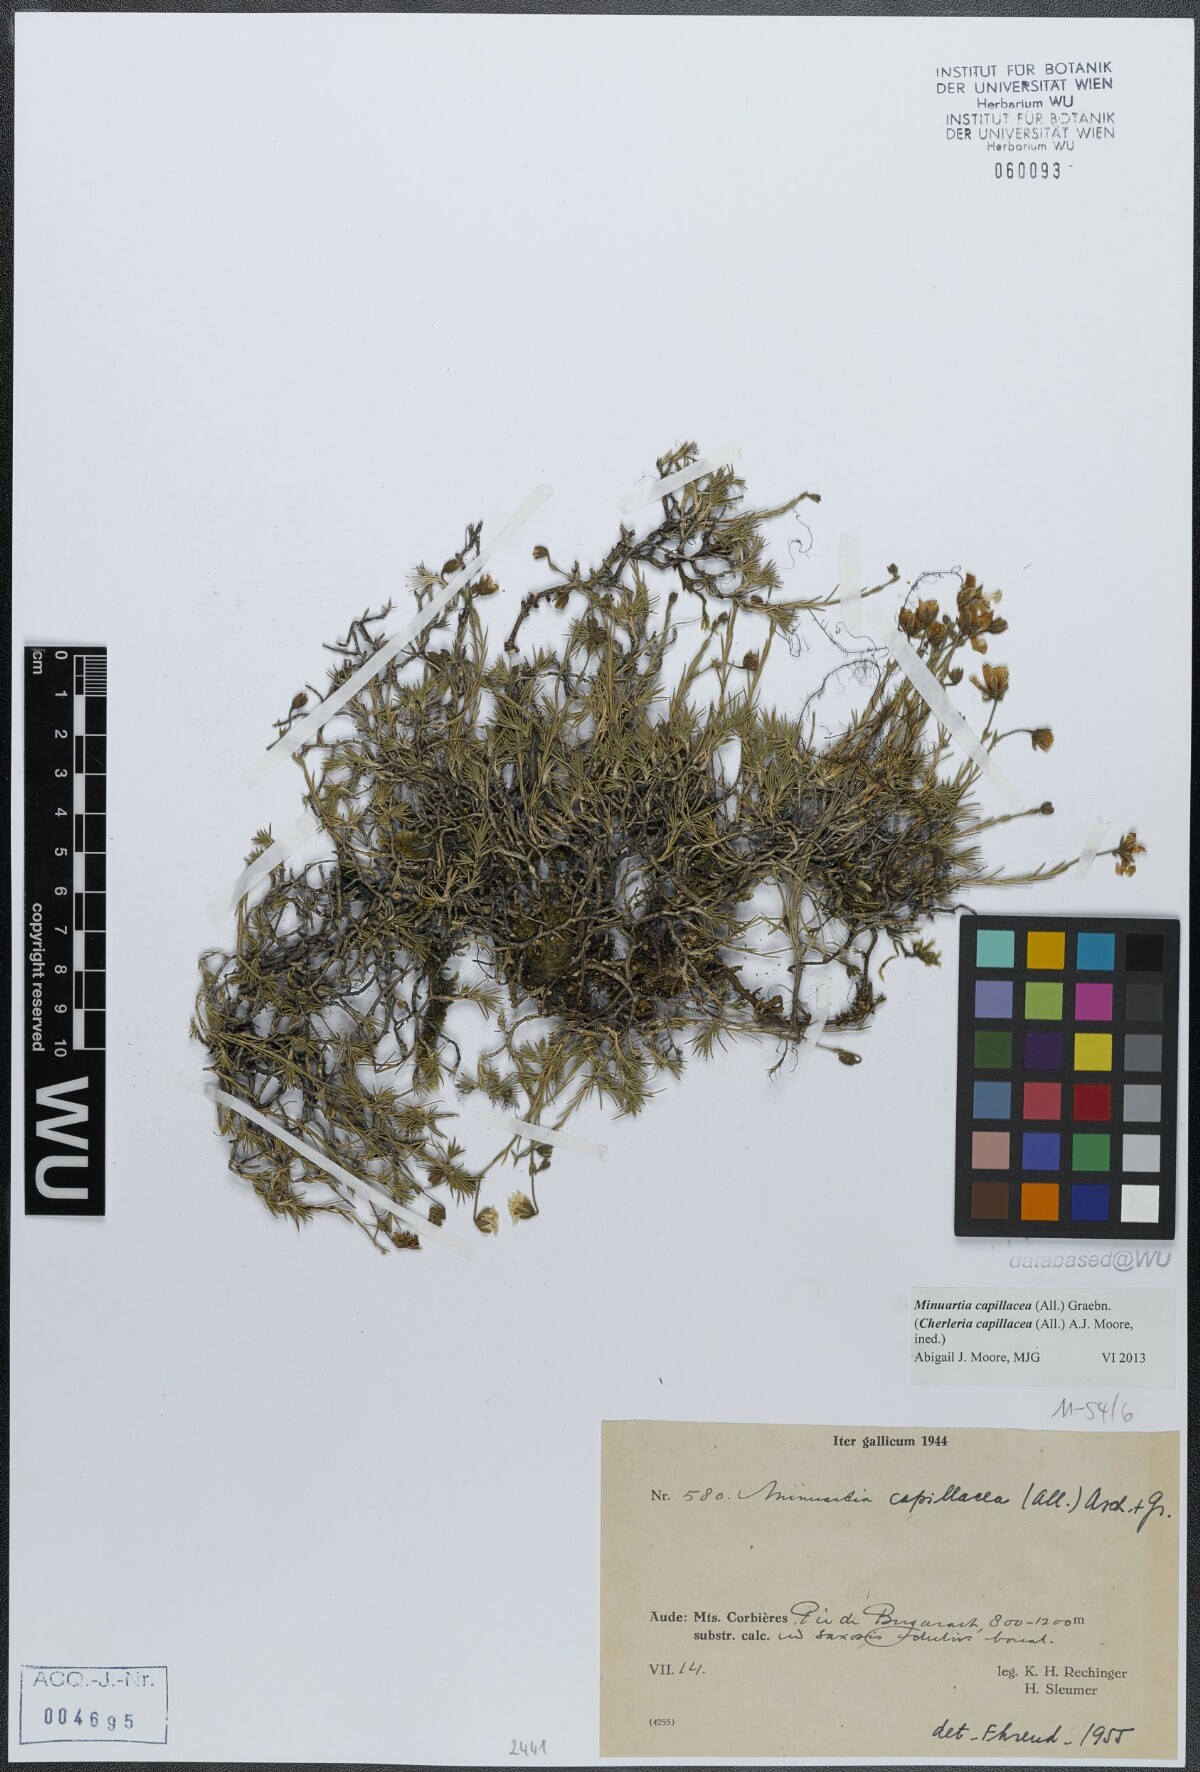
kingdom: Plantae
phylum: Tracheophyta
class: Magnoliopsida
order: Caryophyllales
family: Caryophyllaceae
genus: Cherleria
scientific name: Cherleria capillacea
